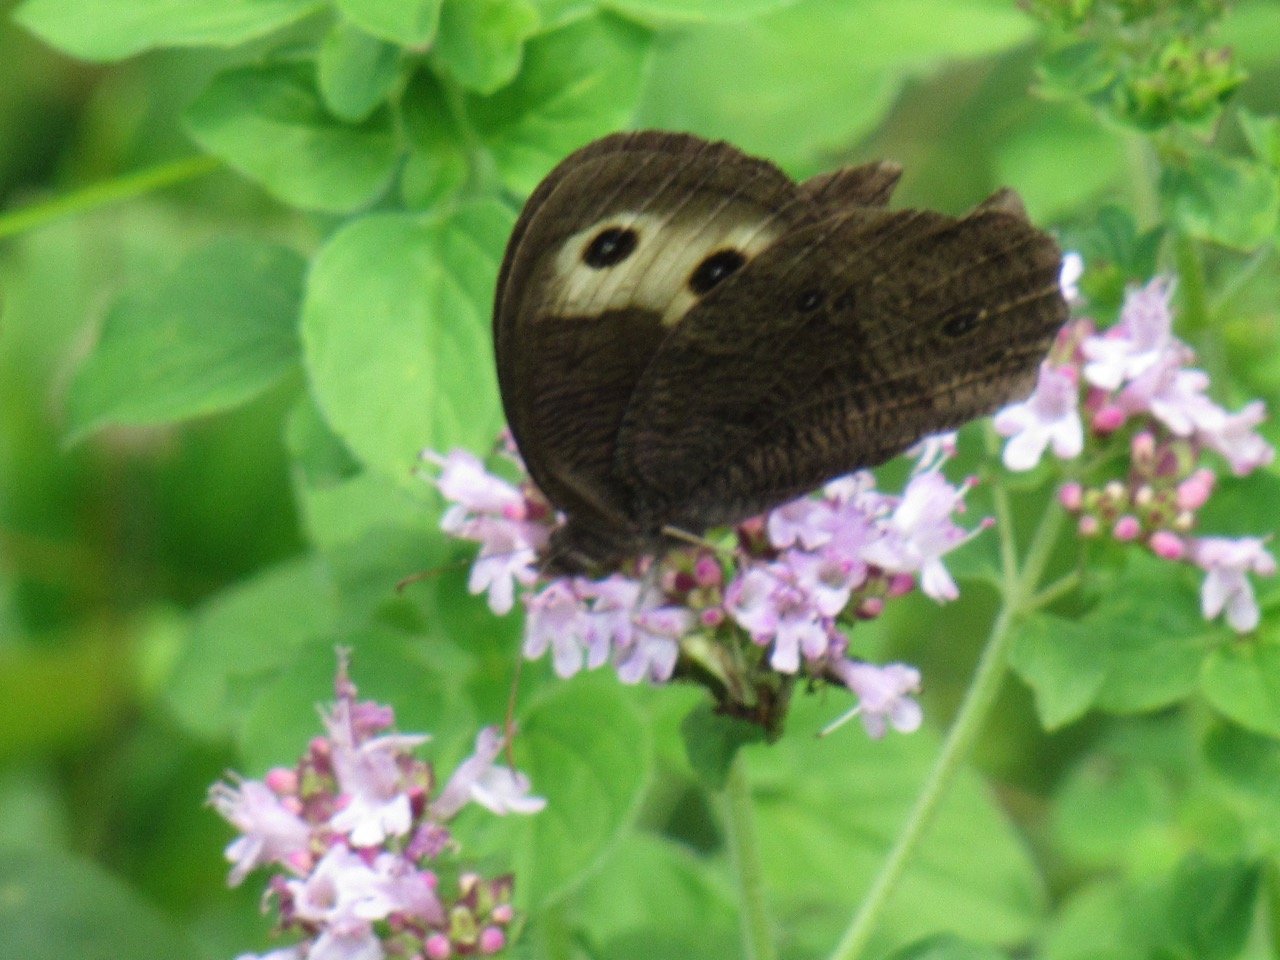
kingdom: Animalia
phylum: Arthropoda
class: Insecta
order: Lepidoptera
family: Nymphalidae
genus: Cercyonis
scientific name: Cercyonis pegala
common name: Common Wood-Nymph
